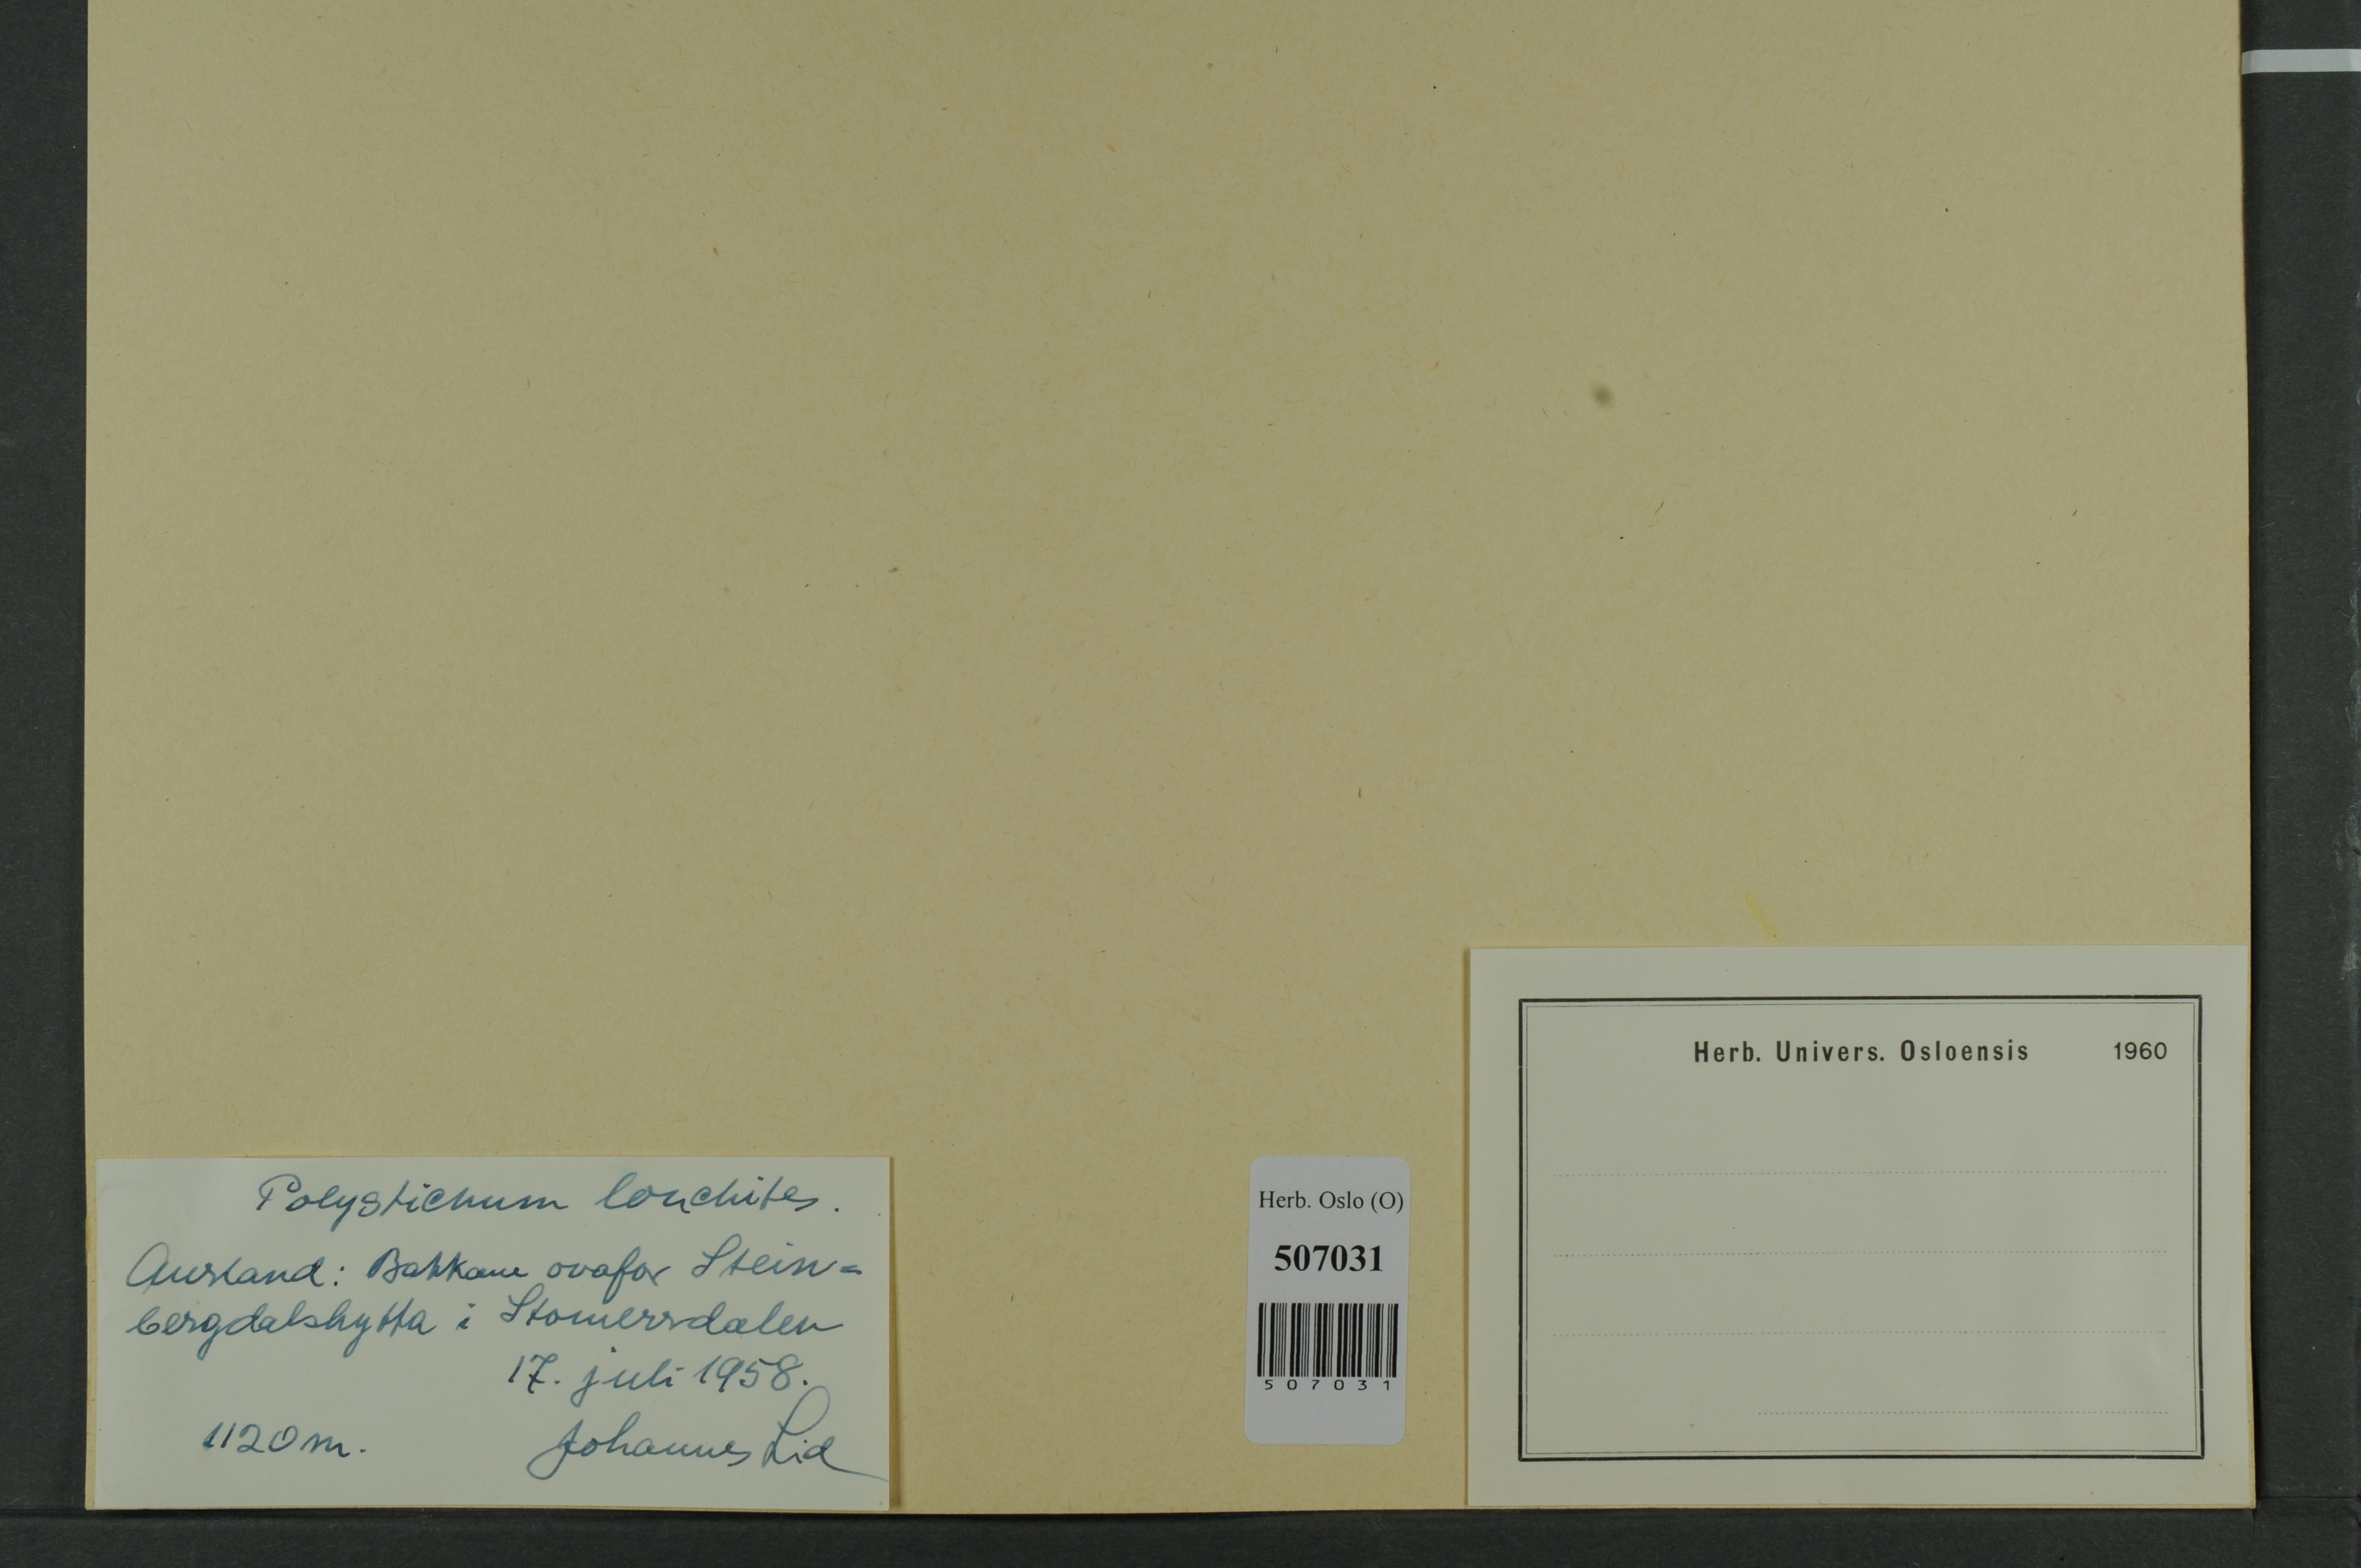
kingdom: Plantae
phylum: Tracheophyta
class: Polypodiopsida
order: Polypodiales
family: Dryopteridaceae
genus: Polystichum
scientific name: Polystichum lonchitis
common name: Holly fern
